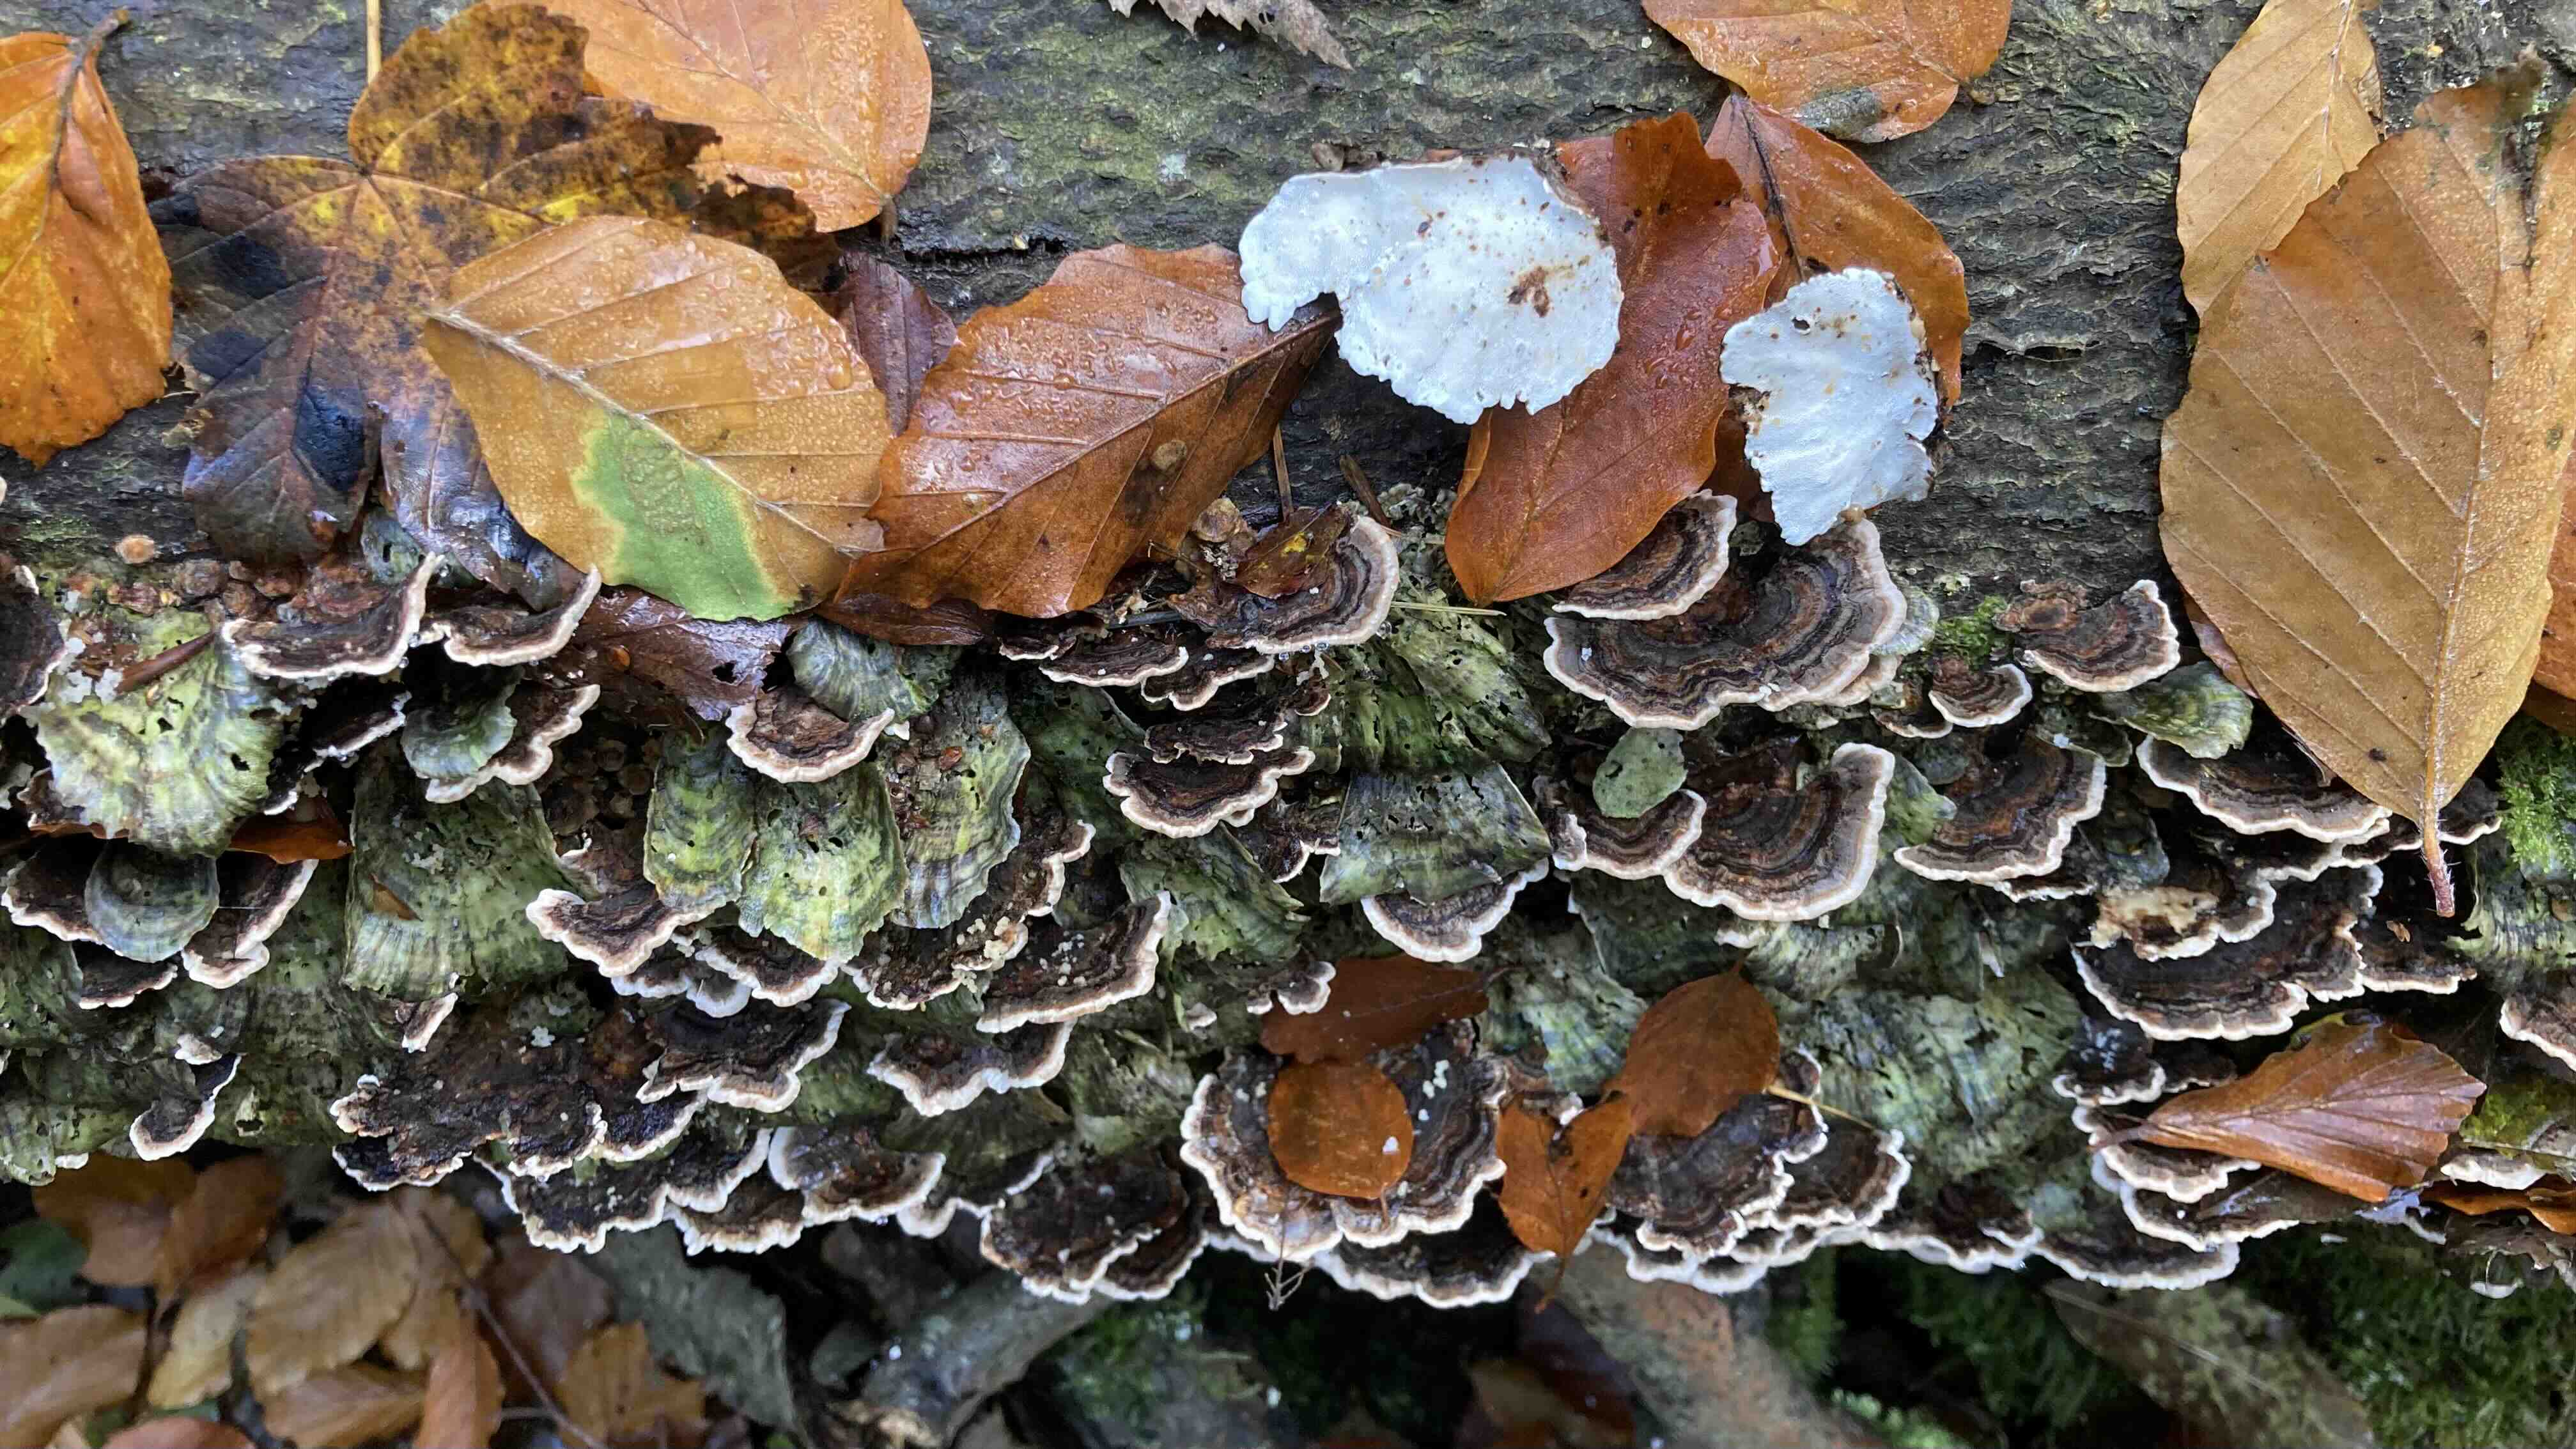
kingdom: Fungi
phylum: Basidiomycota
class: Agaricomycetes
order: Polyporales
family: Polyporaceae
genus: Trametes
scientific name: Trametes versicolor
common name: broget læderporesvamp
